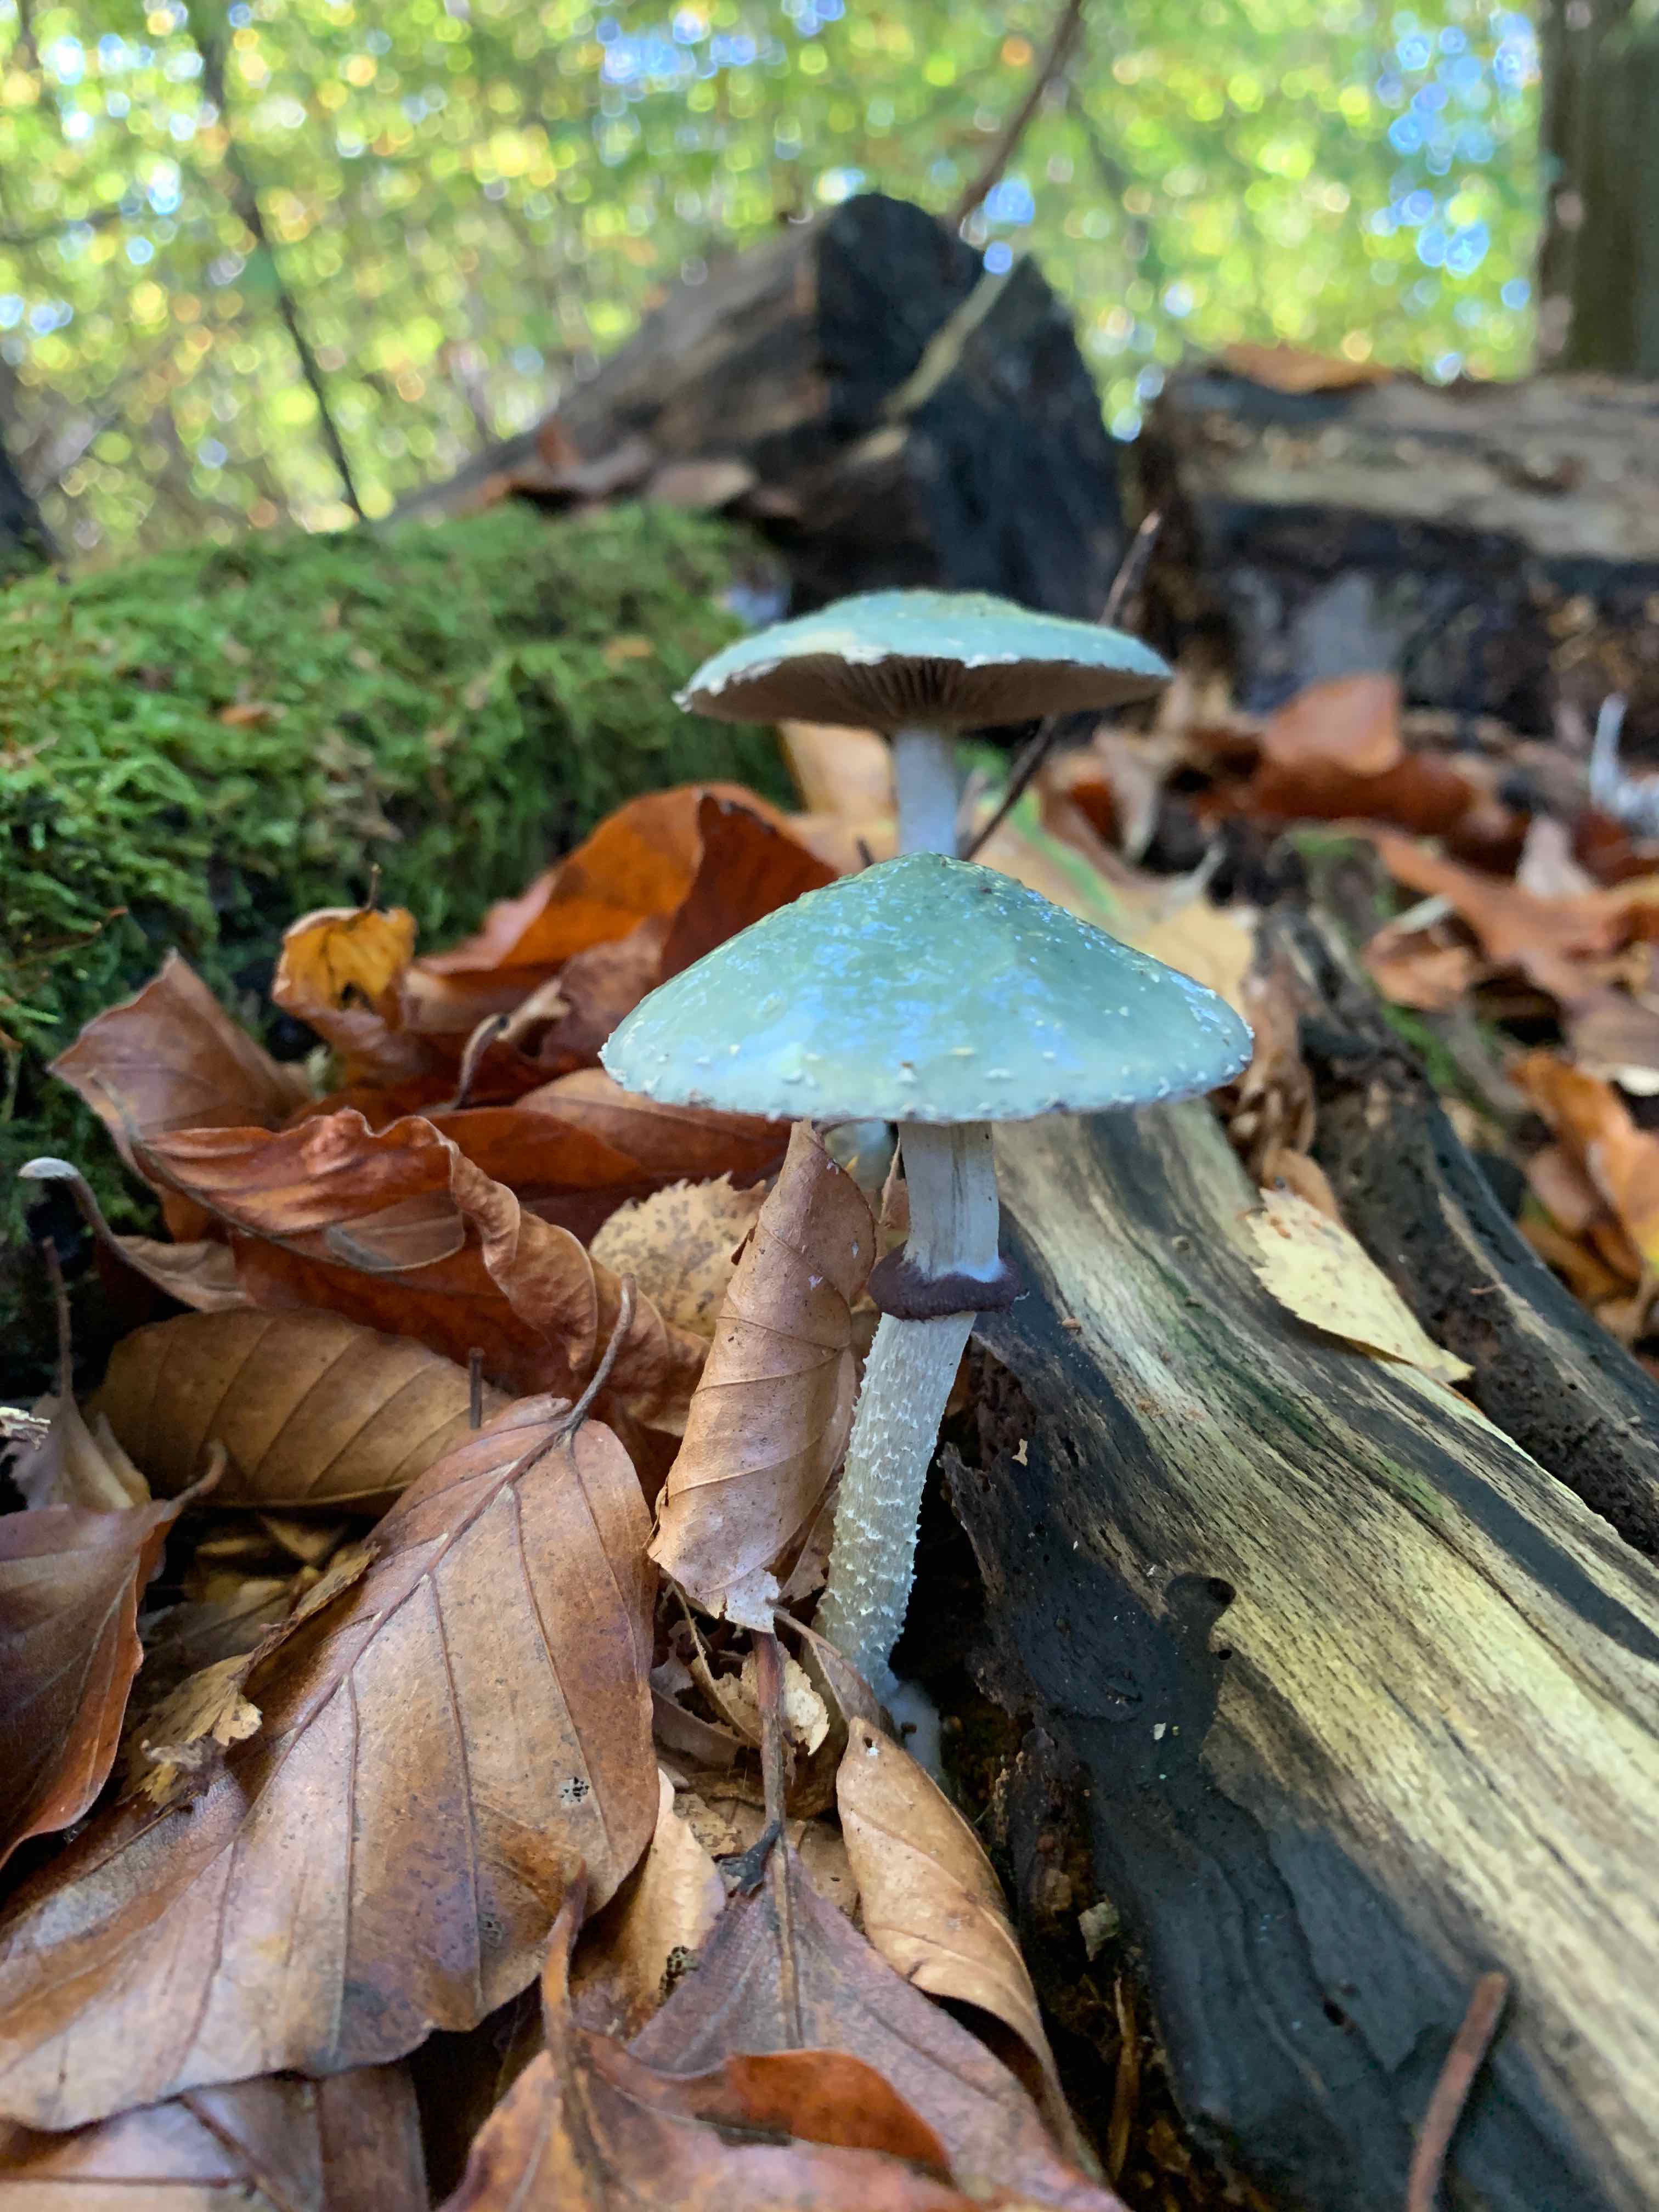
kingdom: Fungi
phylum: Basidiomycota
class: Agaricomycetes
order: Agaricales
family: Strophariaceae
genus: Stropharia
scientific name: Stropharia aeruginosa
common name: spanskgrøn bredblad
